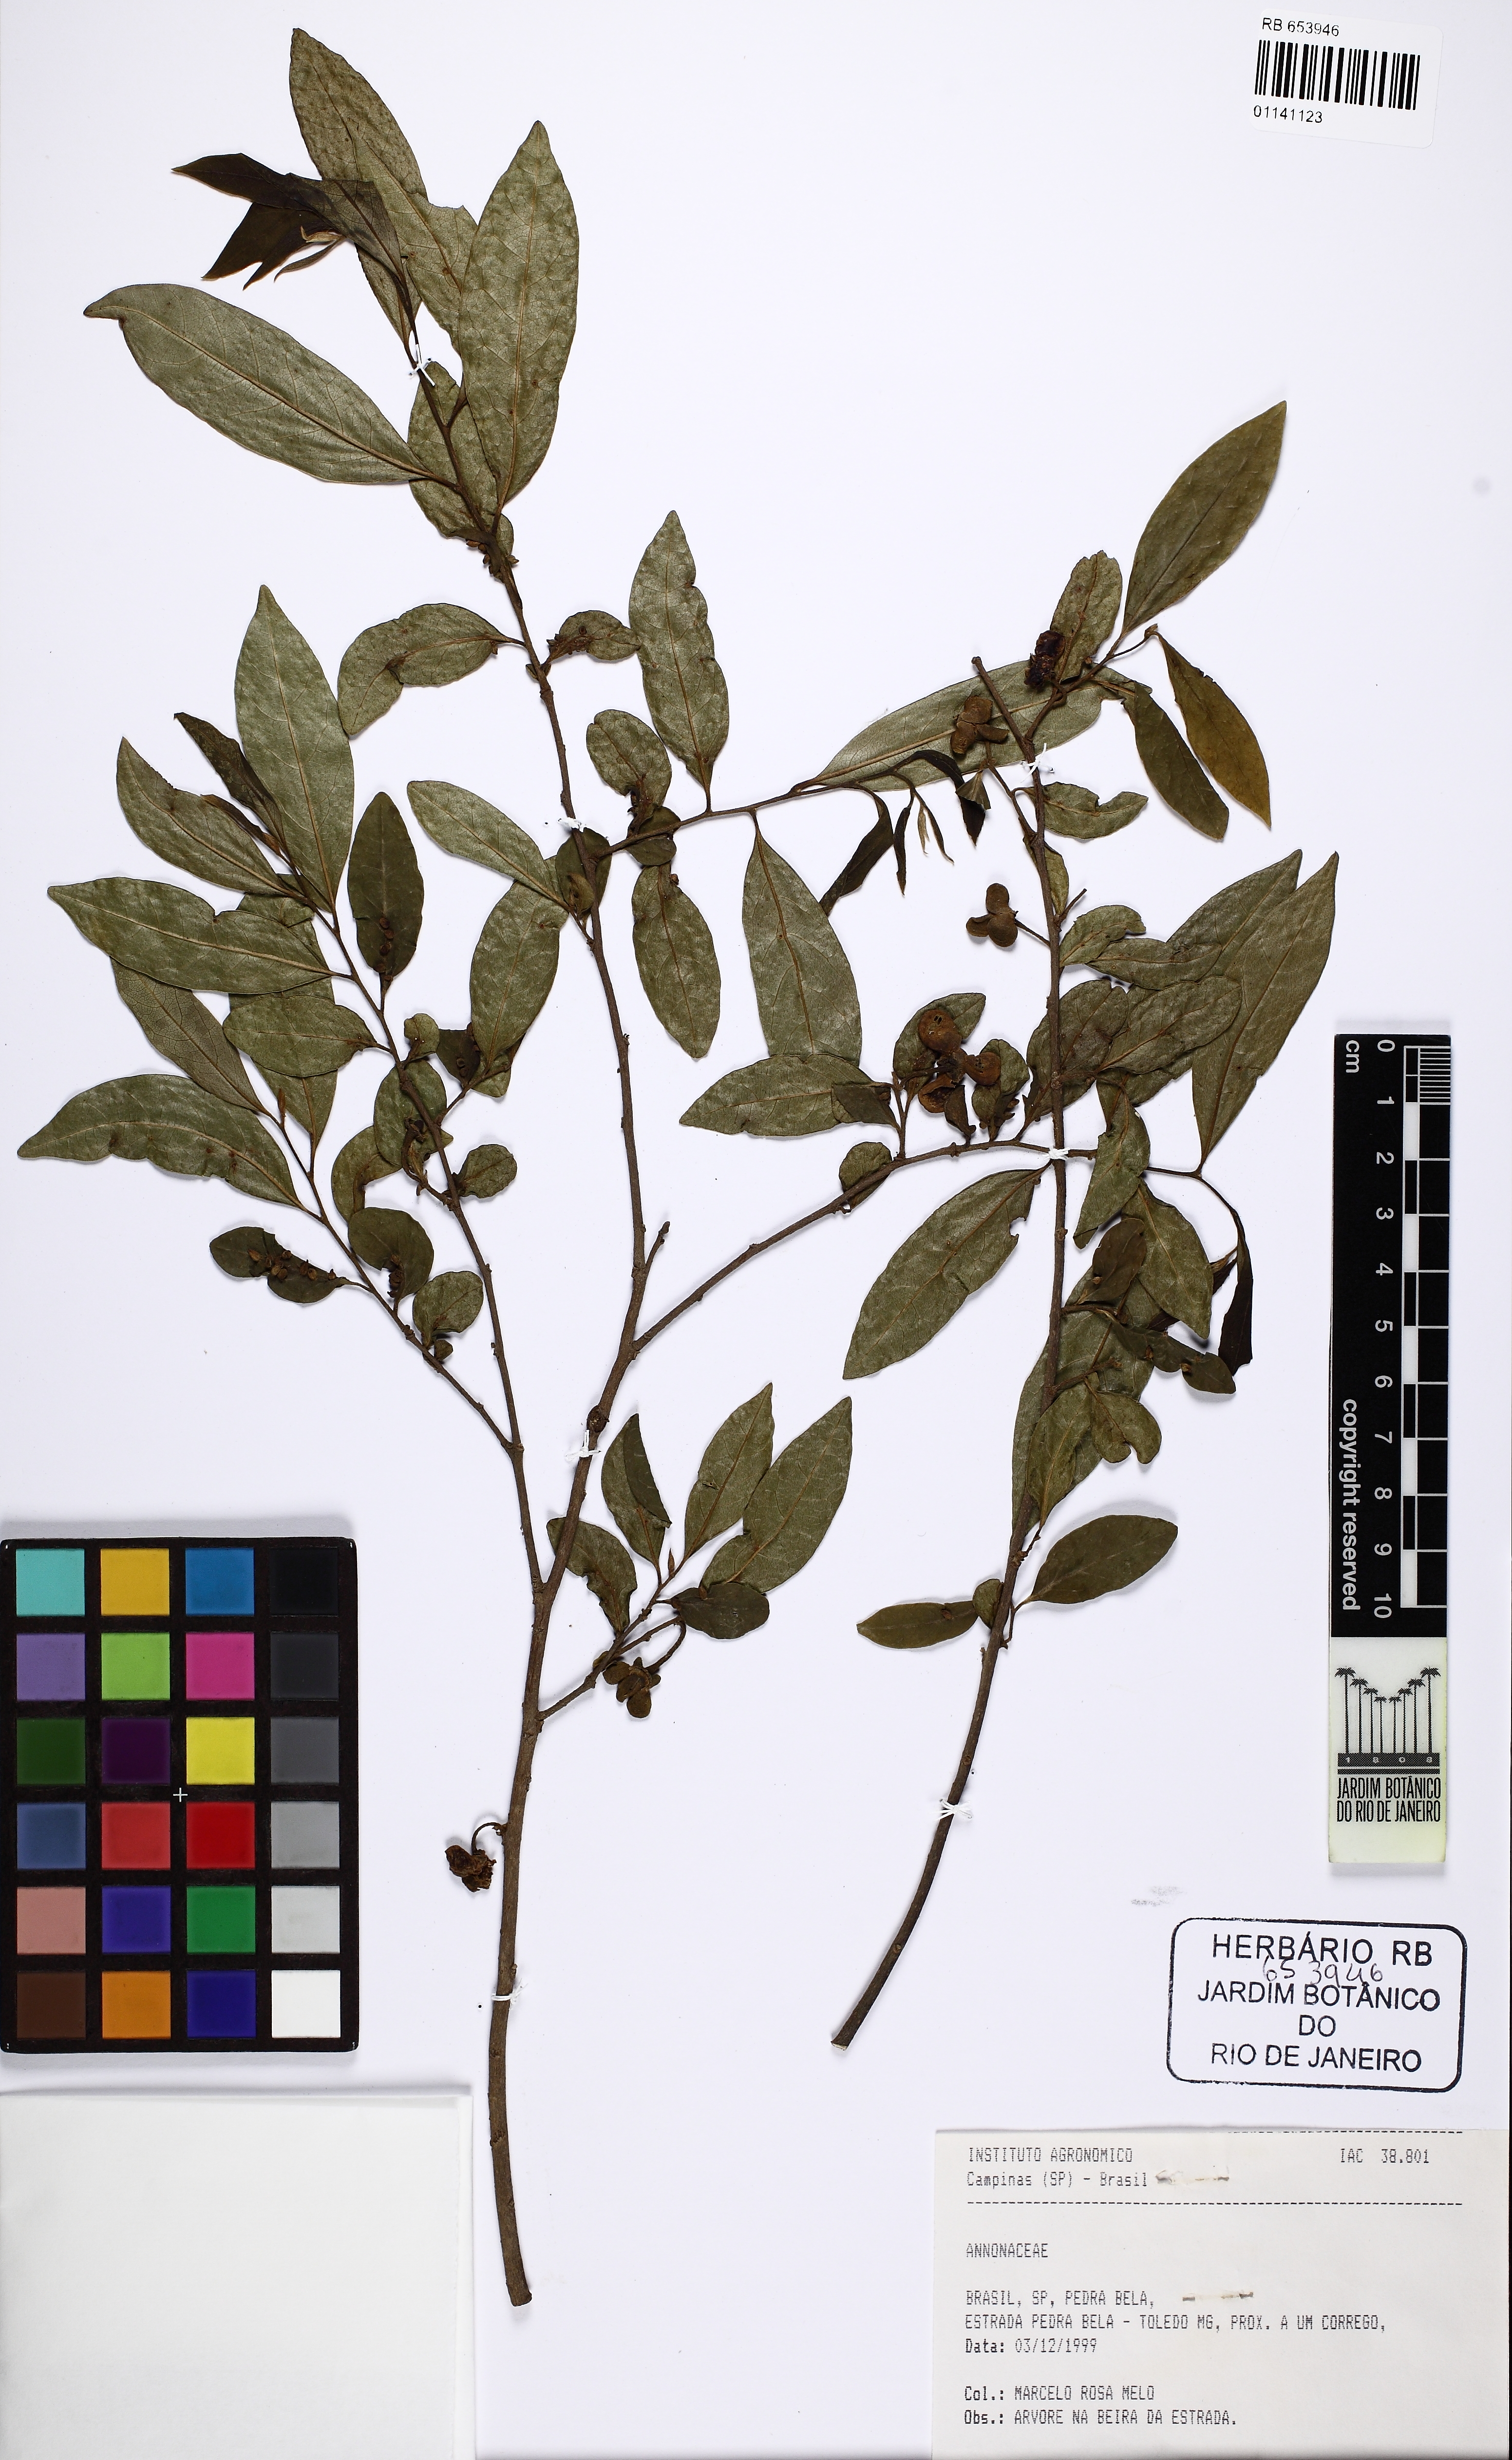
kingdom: Plantae
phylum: Tracheophyta
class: Magnoliopsida
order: Magnoliales
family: Annonaceae
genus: Annona
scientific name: Annona emarginata
